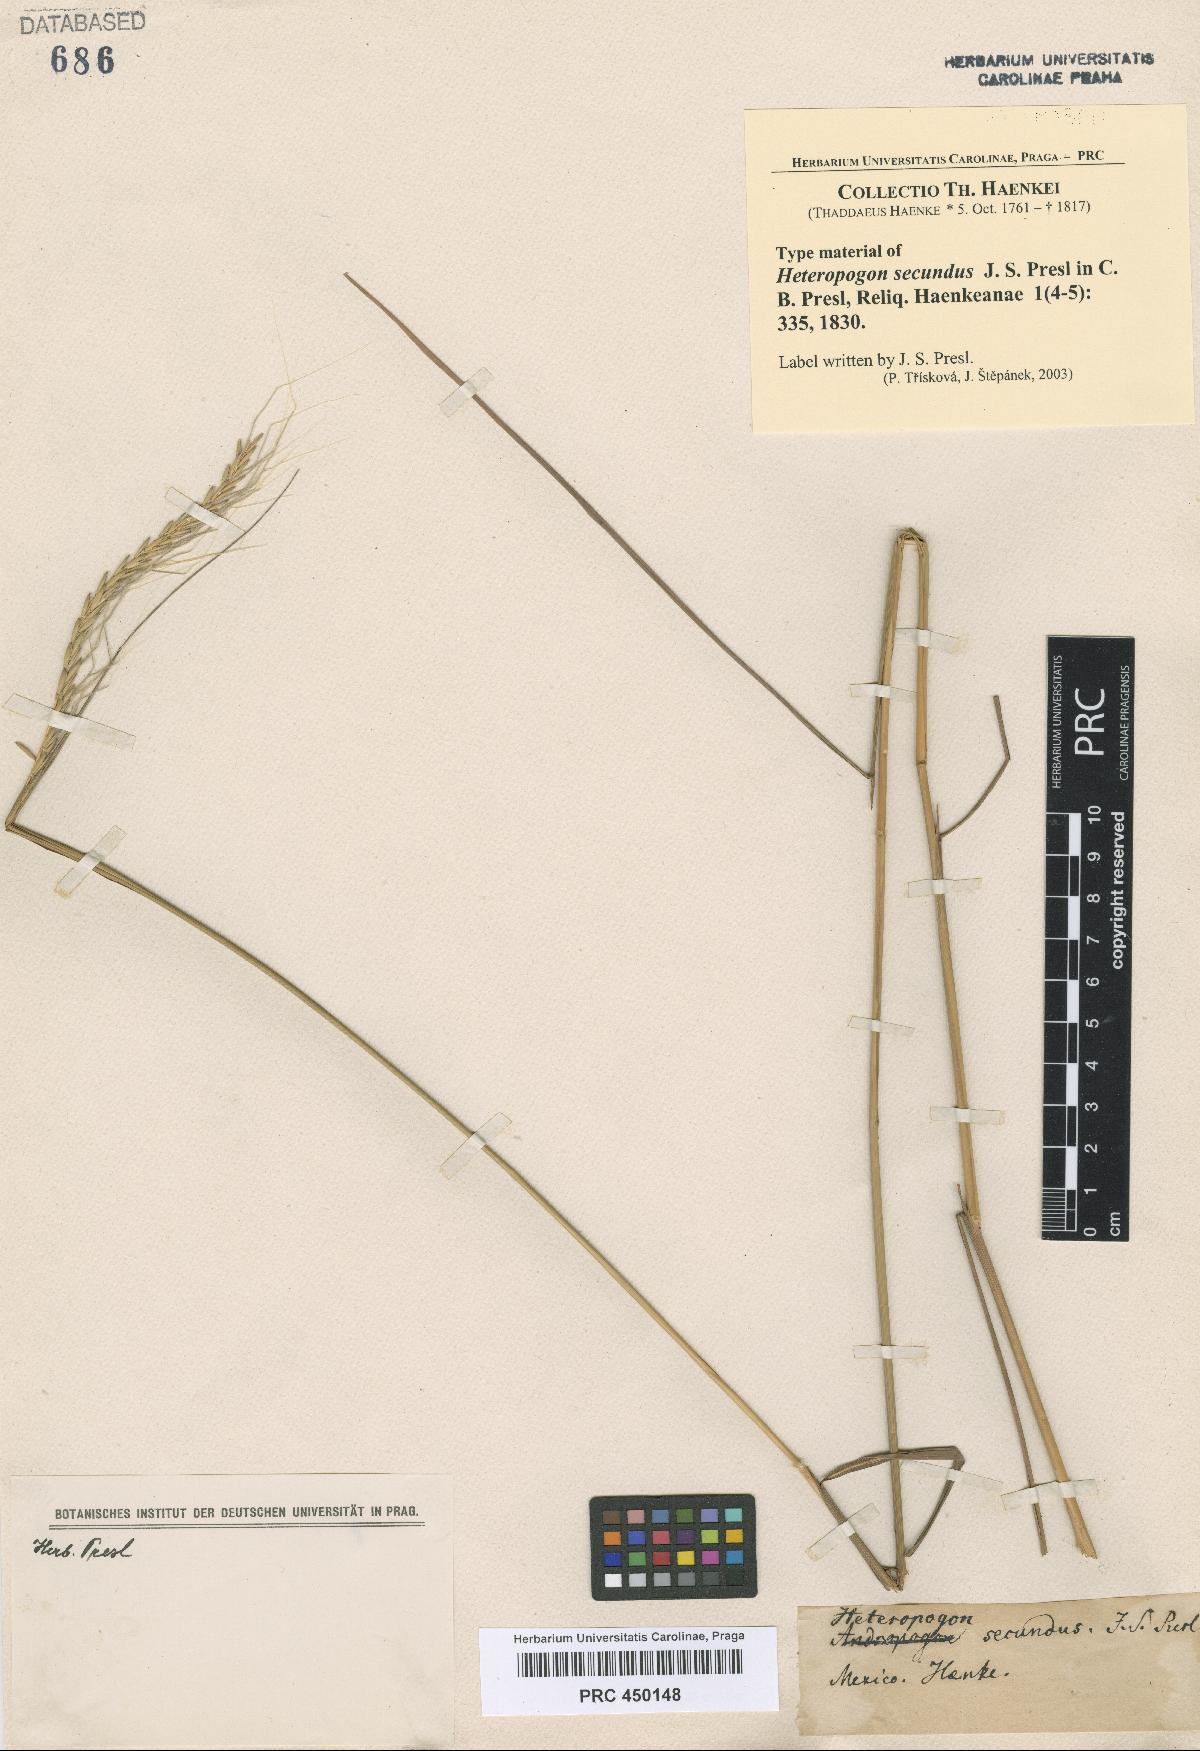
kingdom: Plantae
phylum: Tracheophyta
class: Liliopsida
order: Poales
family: Poaceae
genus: Trachypogon
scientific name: Trachypogon spicatus
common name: Crinkle-awn
